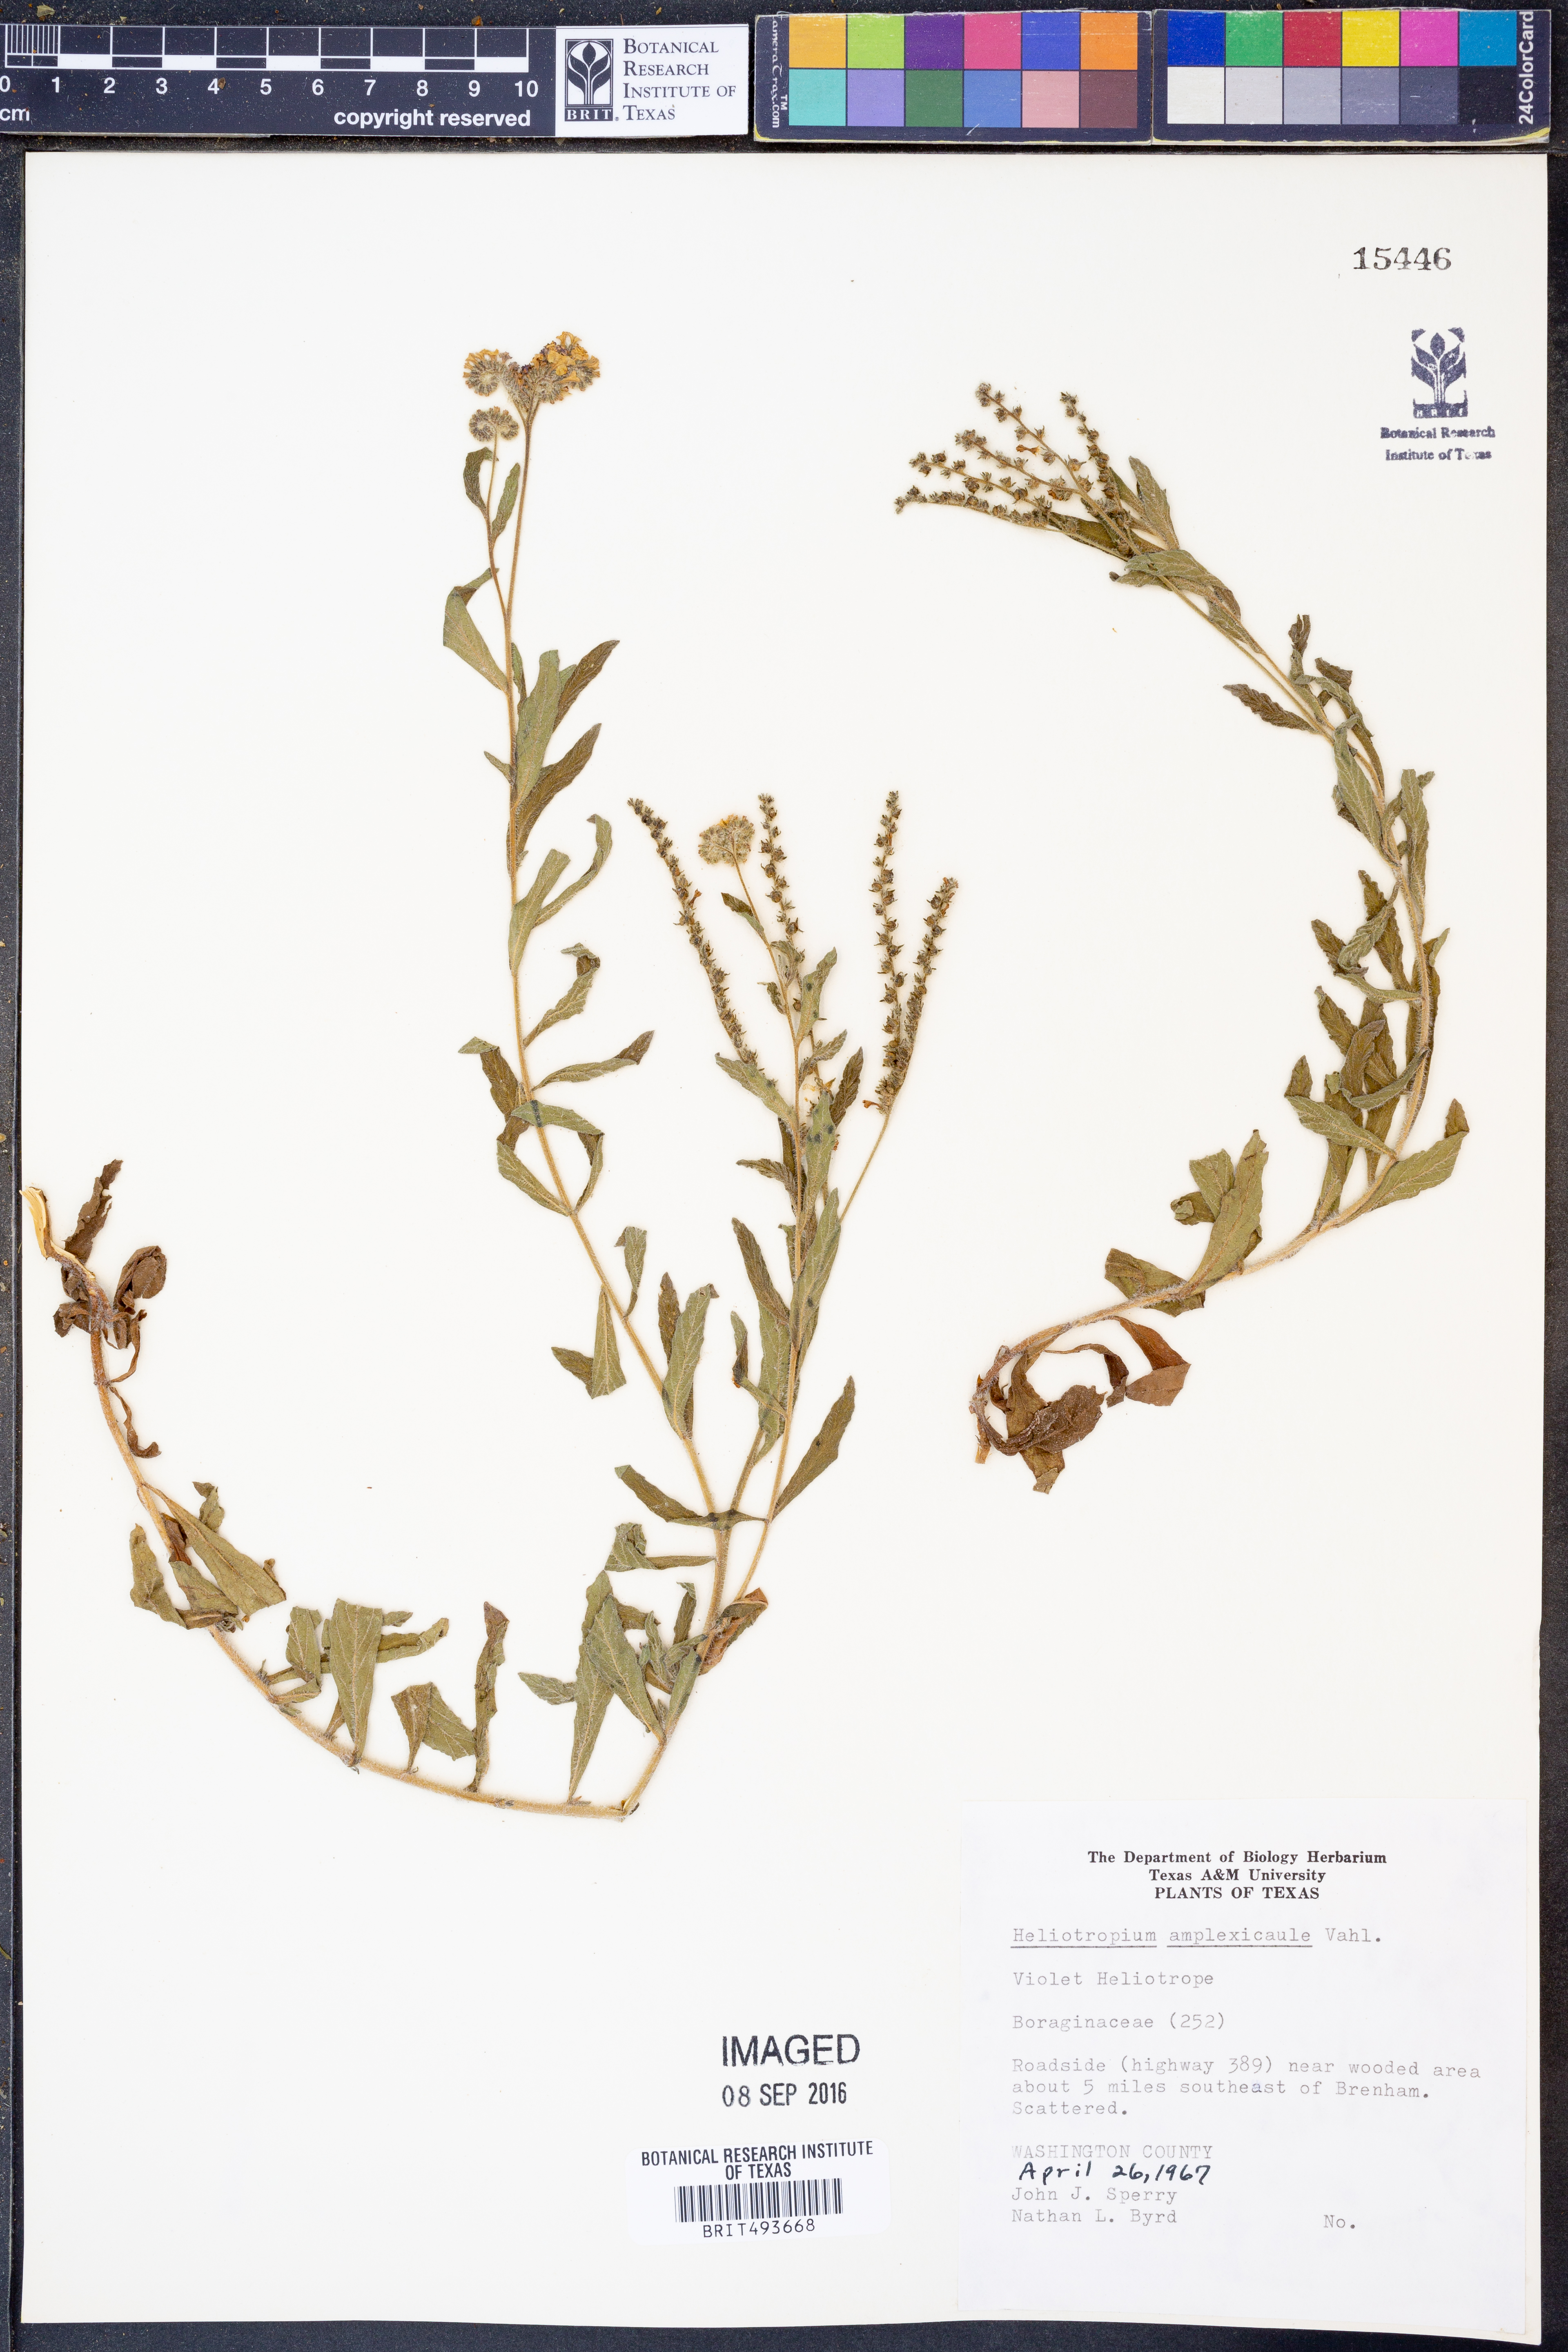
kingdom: Plantae
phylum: Tracheophyta
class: Magnoliopsida
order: Boraginales
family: Heliotropiaceae
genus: Heliotropium
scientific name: Heliotropium amplexicaule
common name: Clasping heliotrope
